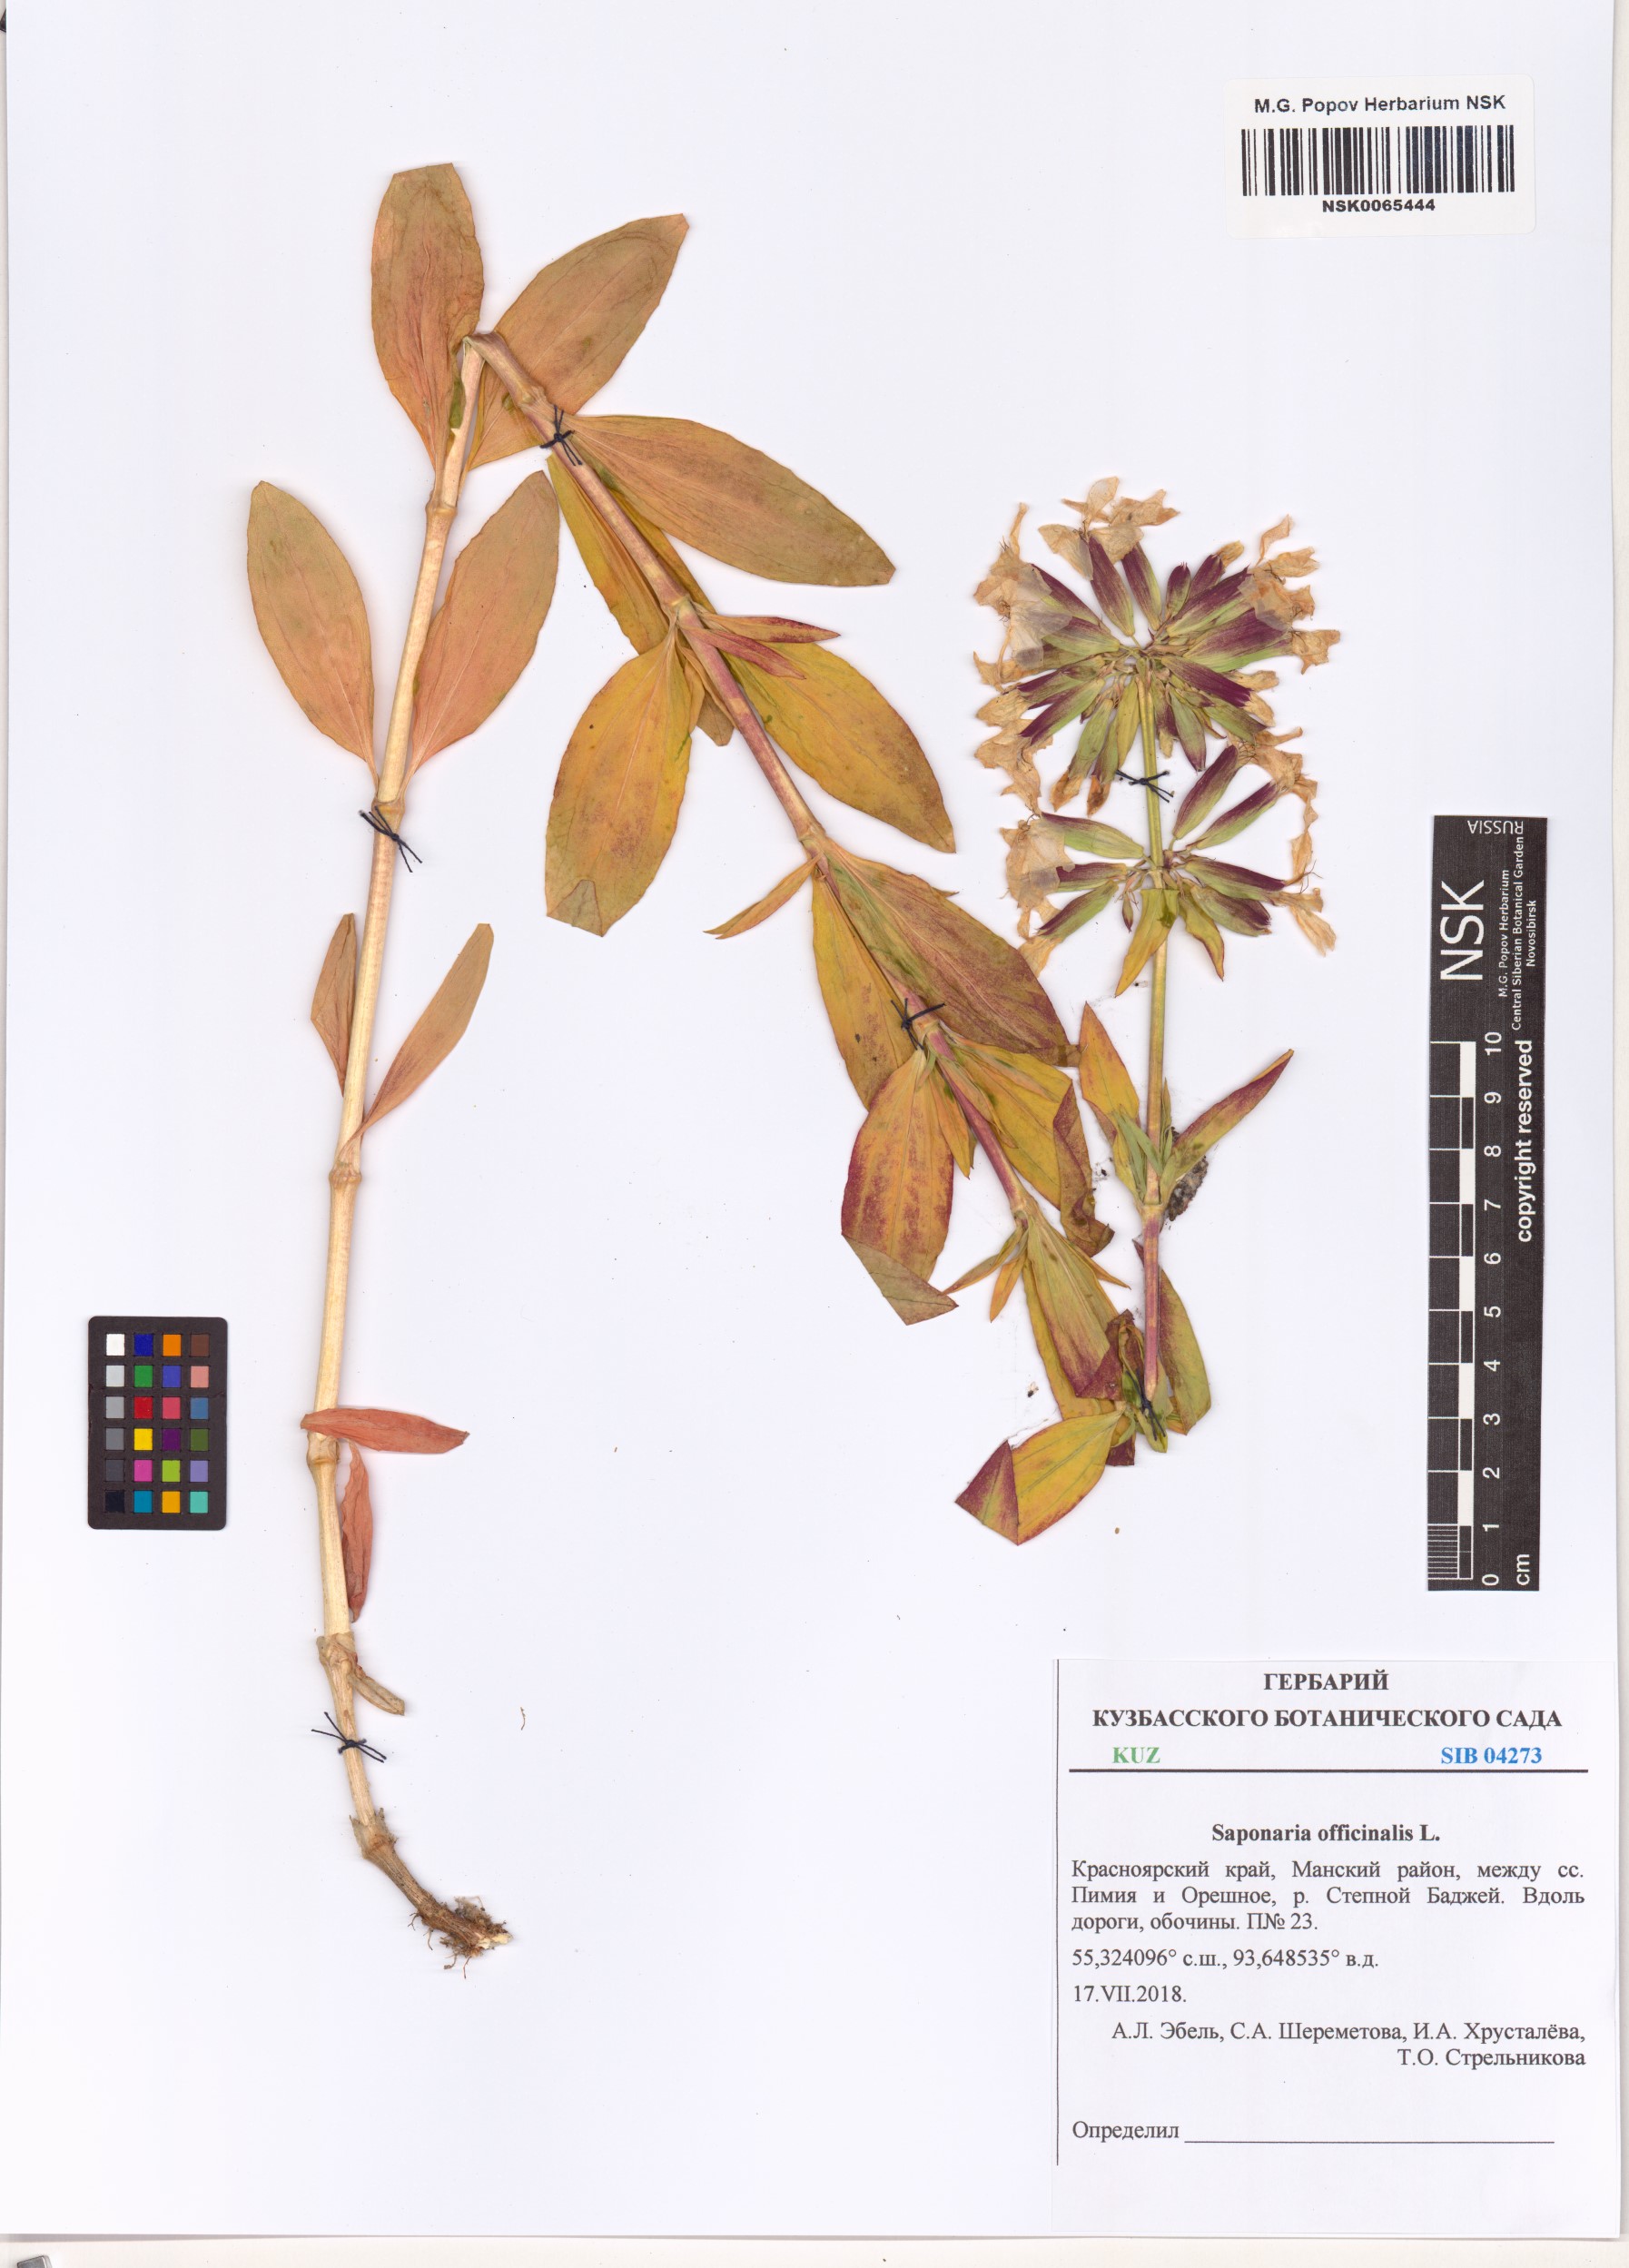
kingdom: Plantae
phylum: Tracheophyta
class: Magnoliopsida
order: Caryophyllales
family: Caryophyllaceae
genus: Saponaria
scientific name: Saponaria officinalis
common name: Soapwort
